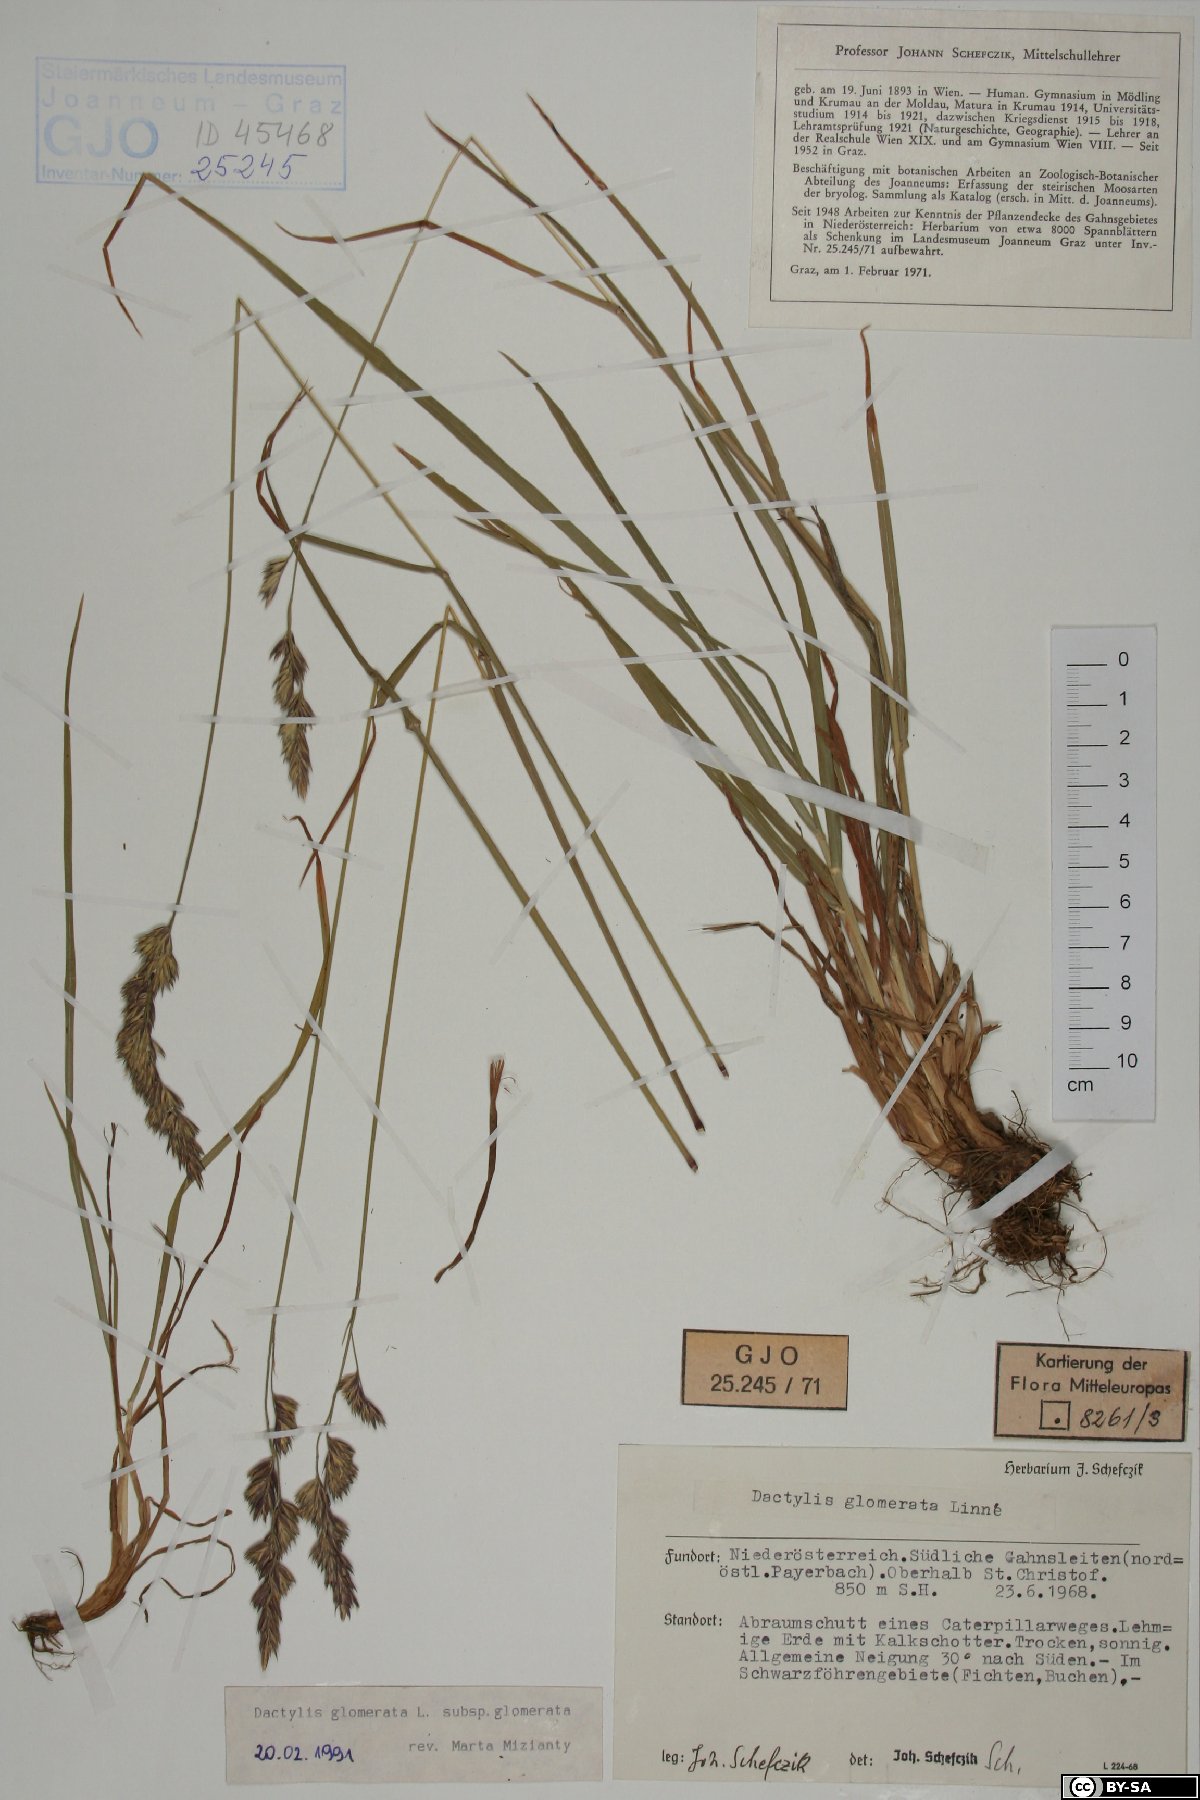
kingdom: Plantae
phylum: Tracheophyta
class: Liliopsida
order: Poales
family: Poaceae
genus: Dactylis
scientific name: Dactylis glomerata
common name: Orchardgrass
